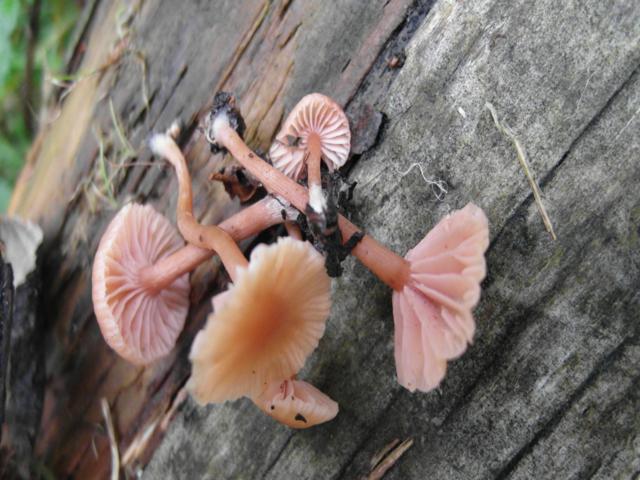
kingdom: Fungi
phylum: Basidiomycota
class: Agaricomycetes
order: Agaricales
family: Hydnangiaceae
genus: Laccaria
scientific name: Laccaria laccata
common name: rød ametysthat
